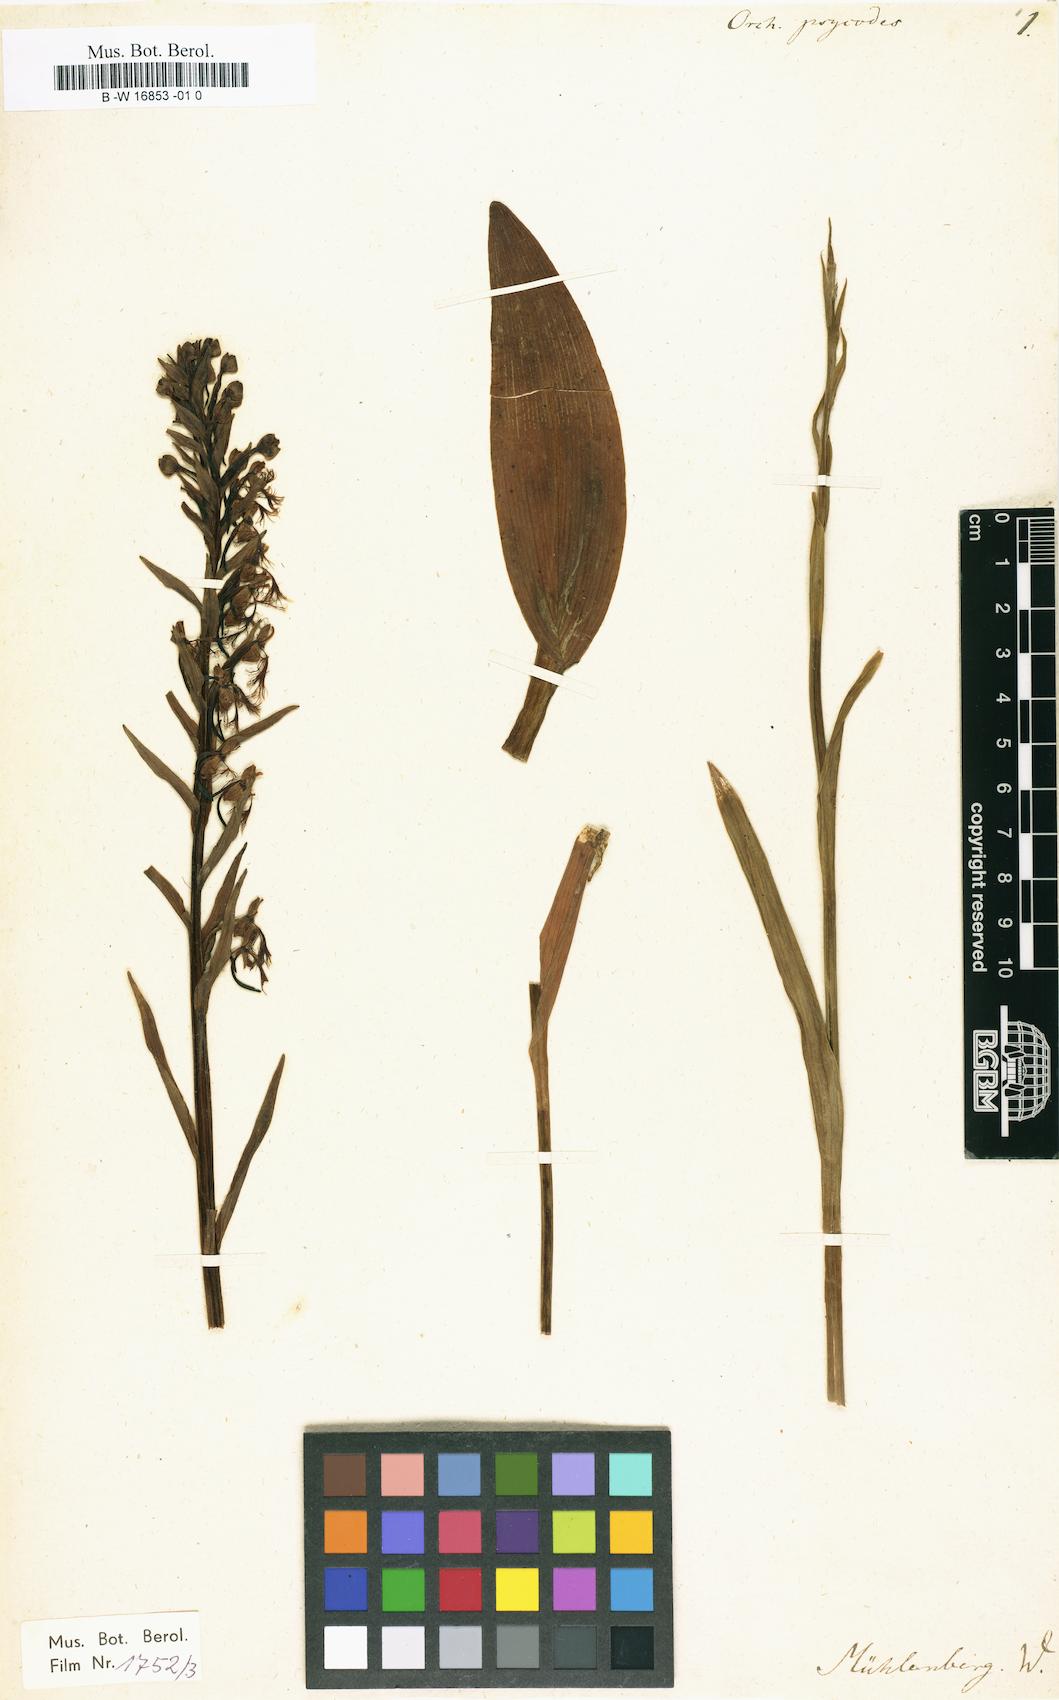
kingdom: Plantae
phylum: Tracheophyta
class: Liliopsida
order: Asparagales
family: Orchidaceae
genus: Platanthera
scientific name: Platanthera psycodes
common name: Lesser purple fringed orchid
